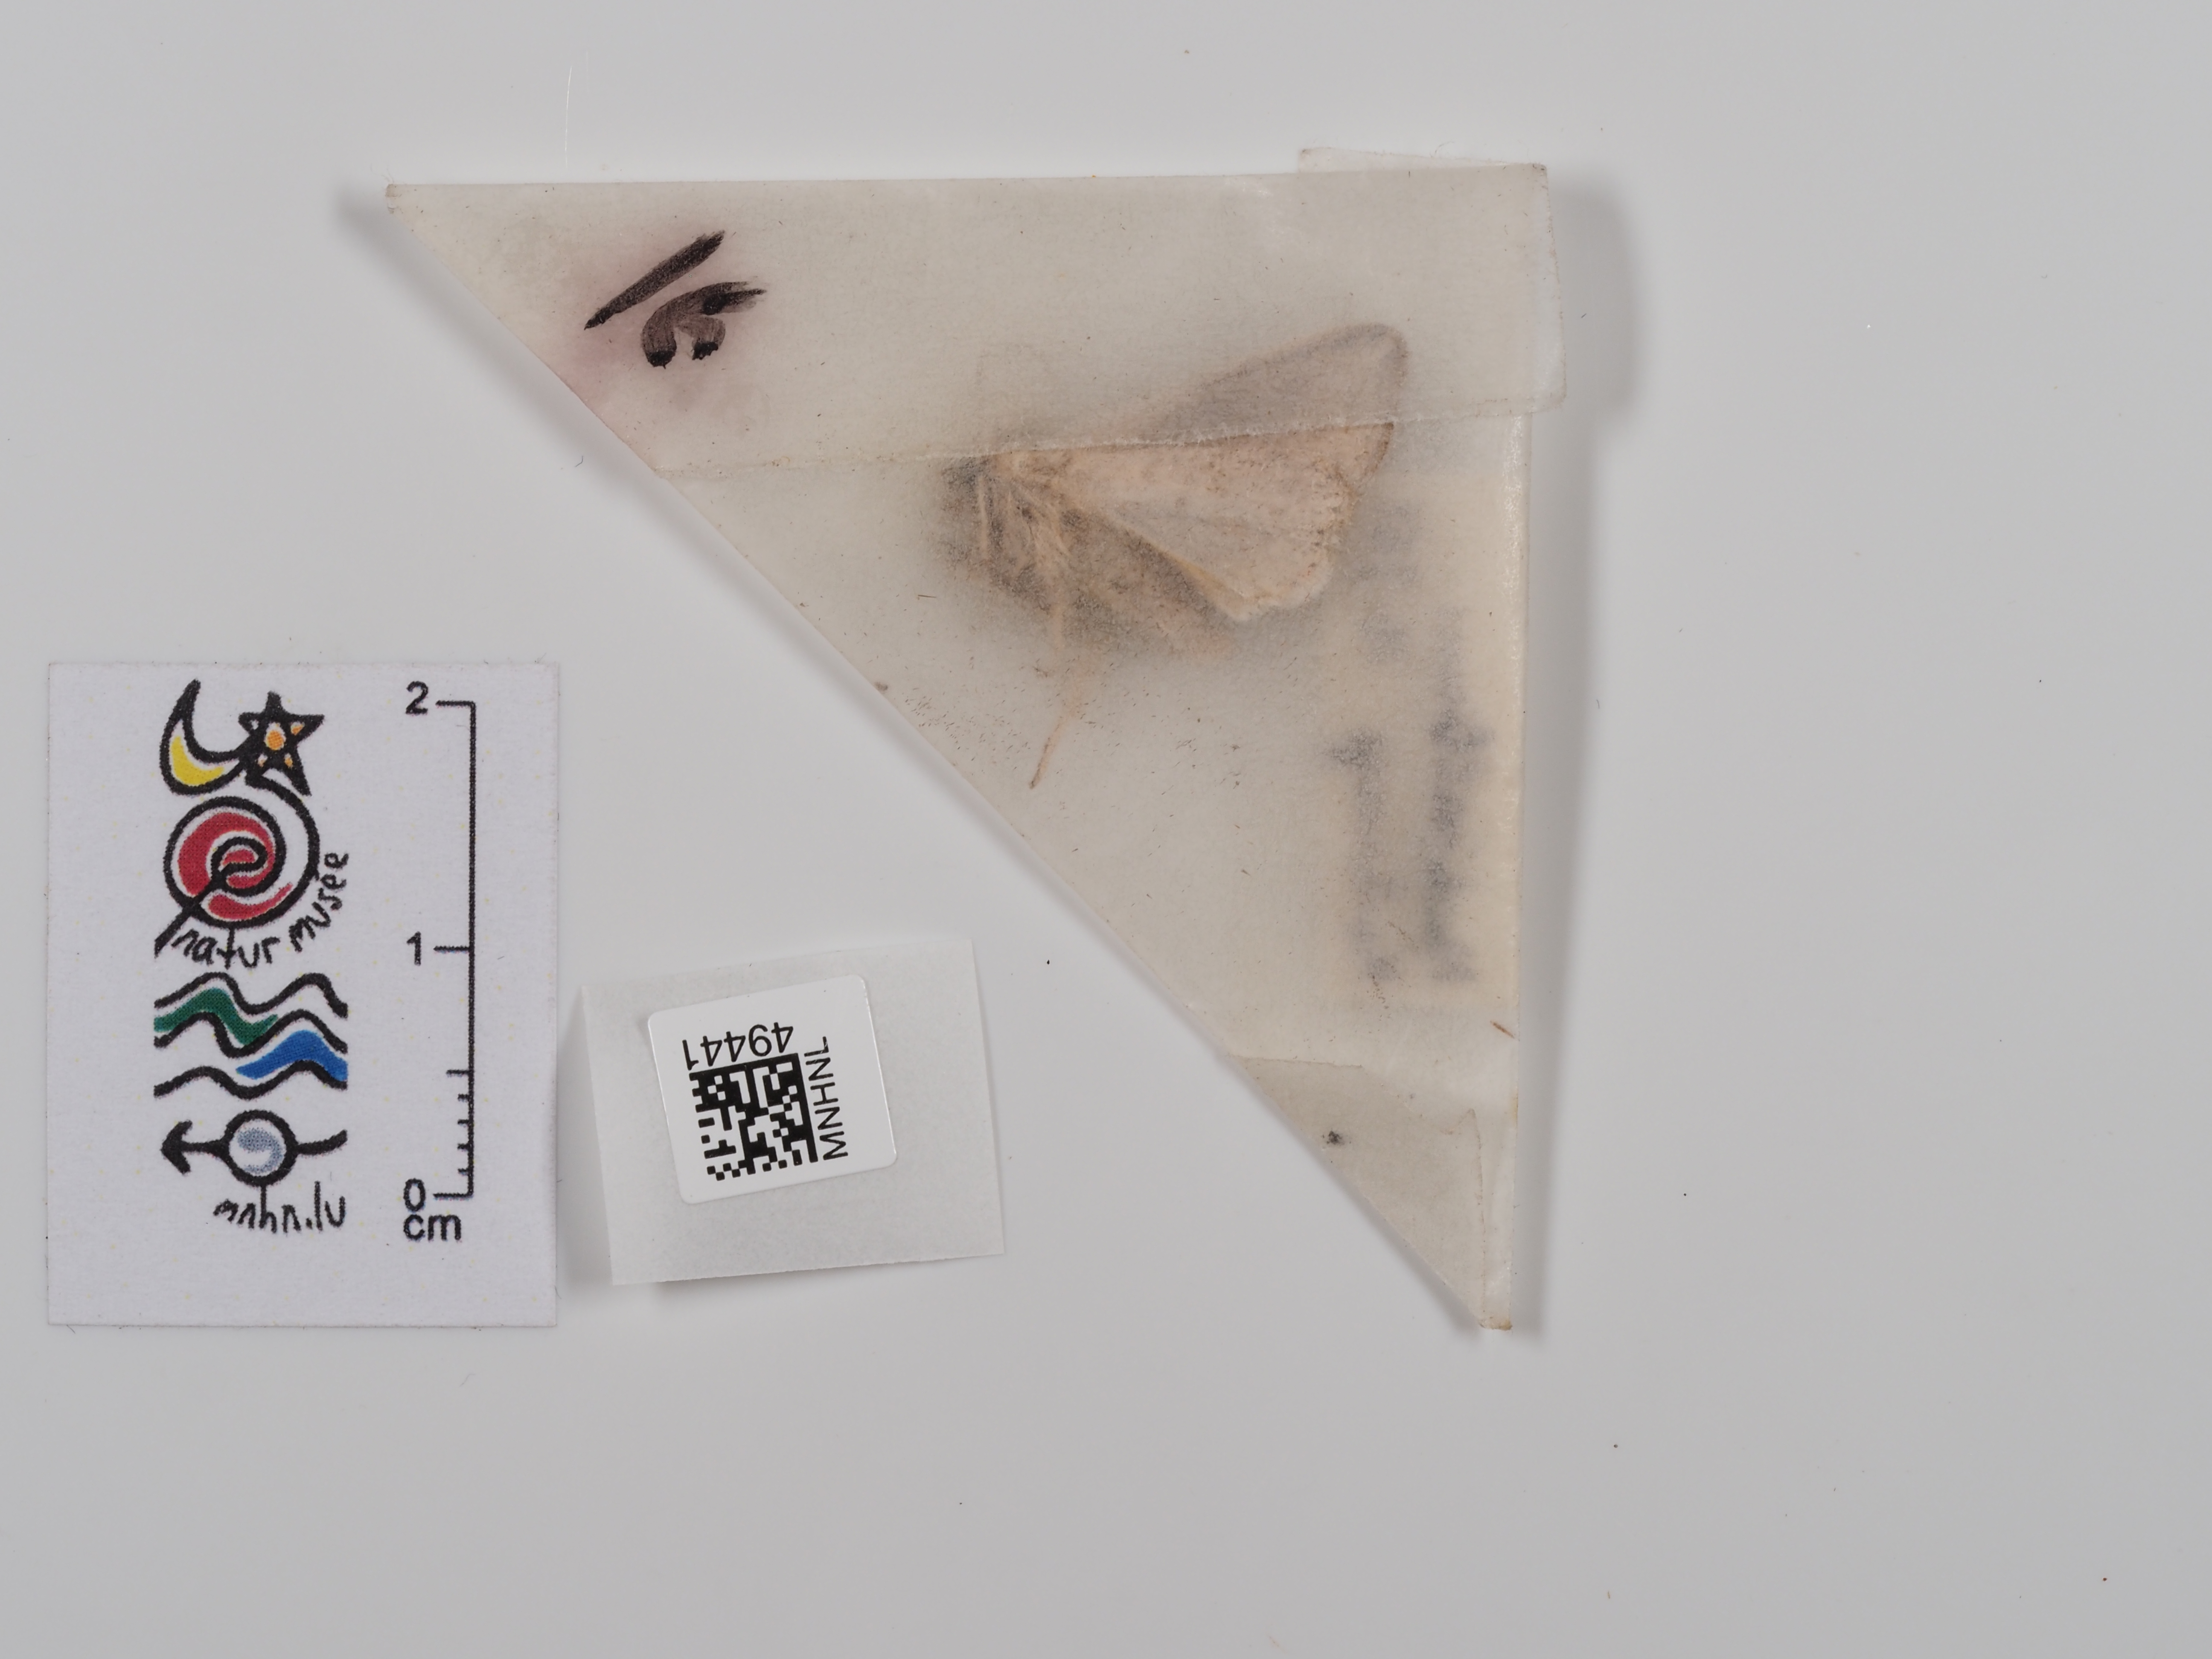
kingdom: Animalia
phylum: Arthropoda
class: Insecta
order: Lepidoptera
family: Noctuidae
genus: Mythimna
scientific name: Mythimna l-album
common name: L-album wainscot
